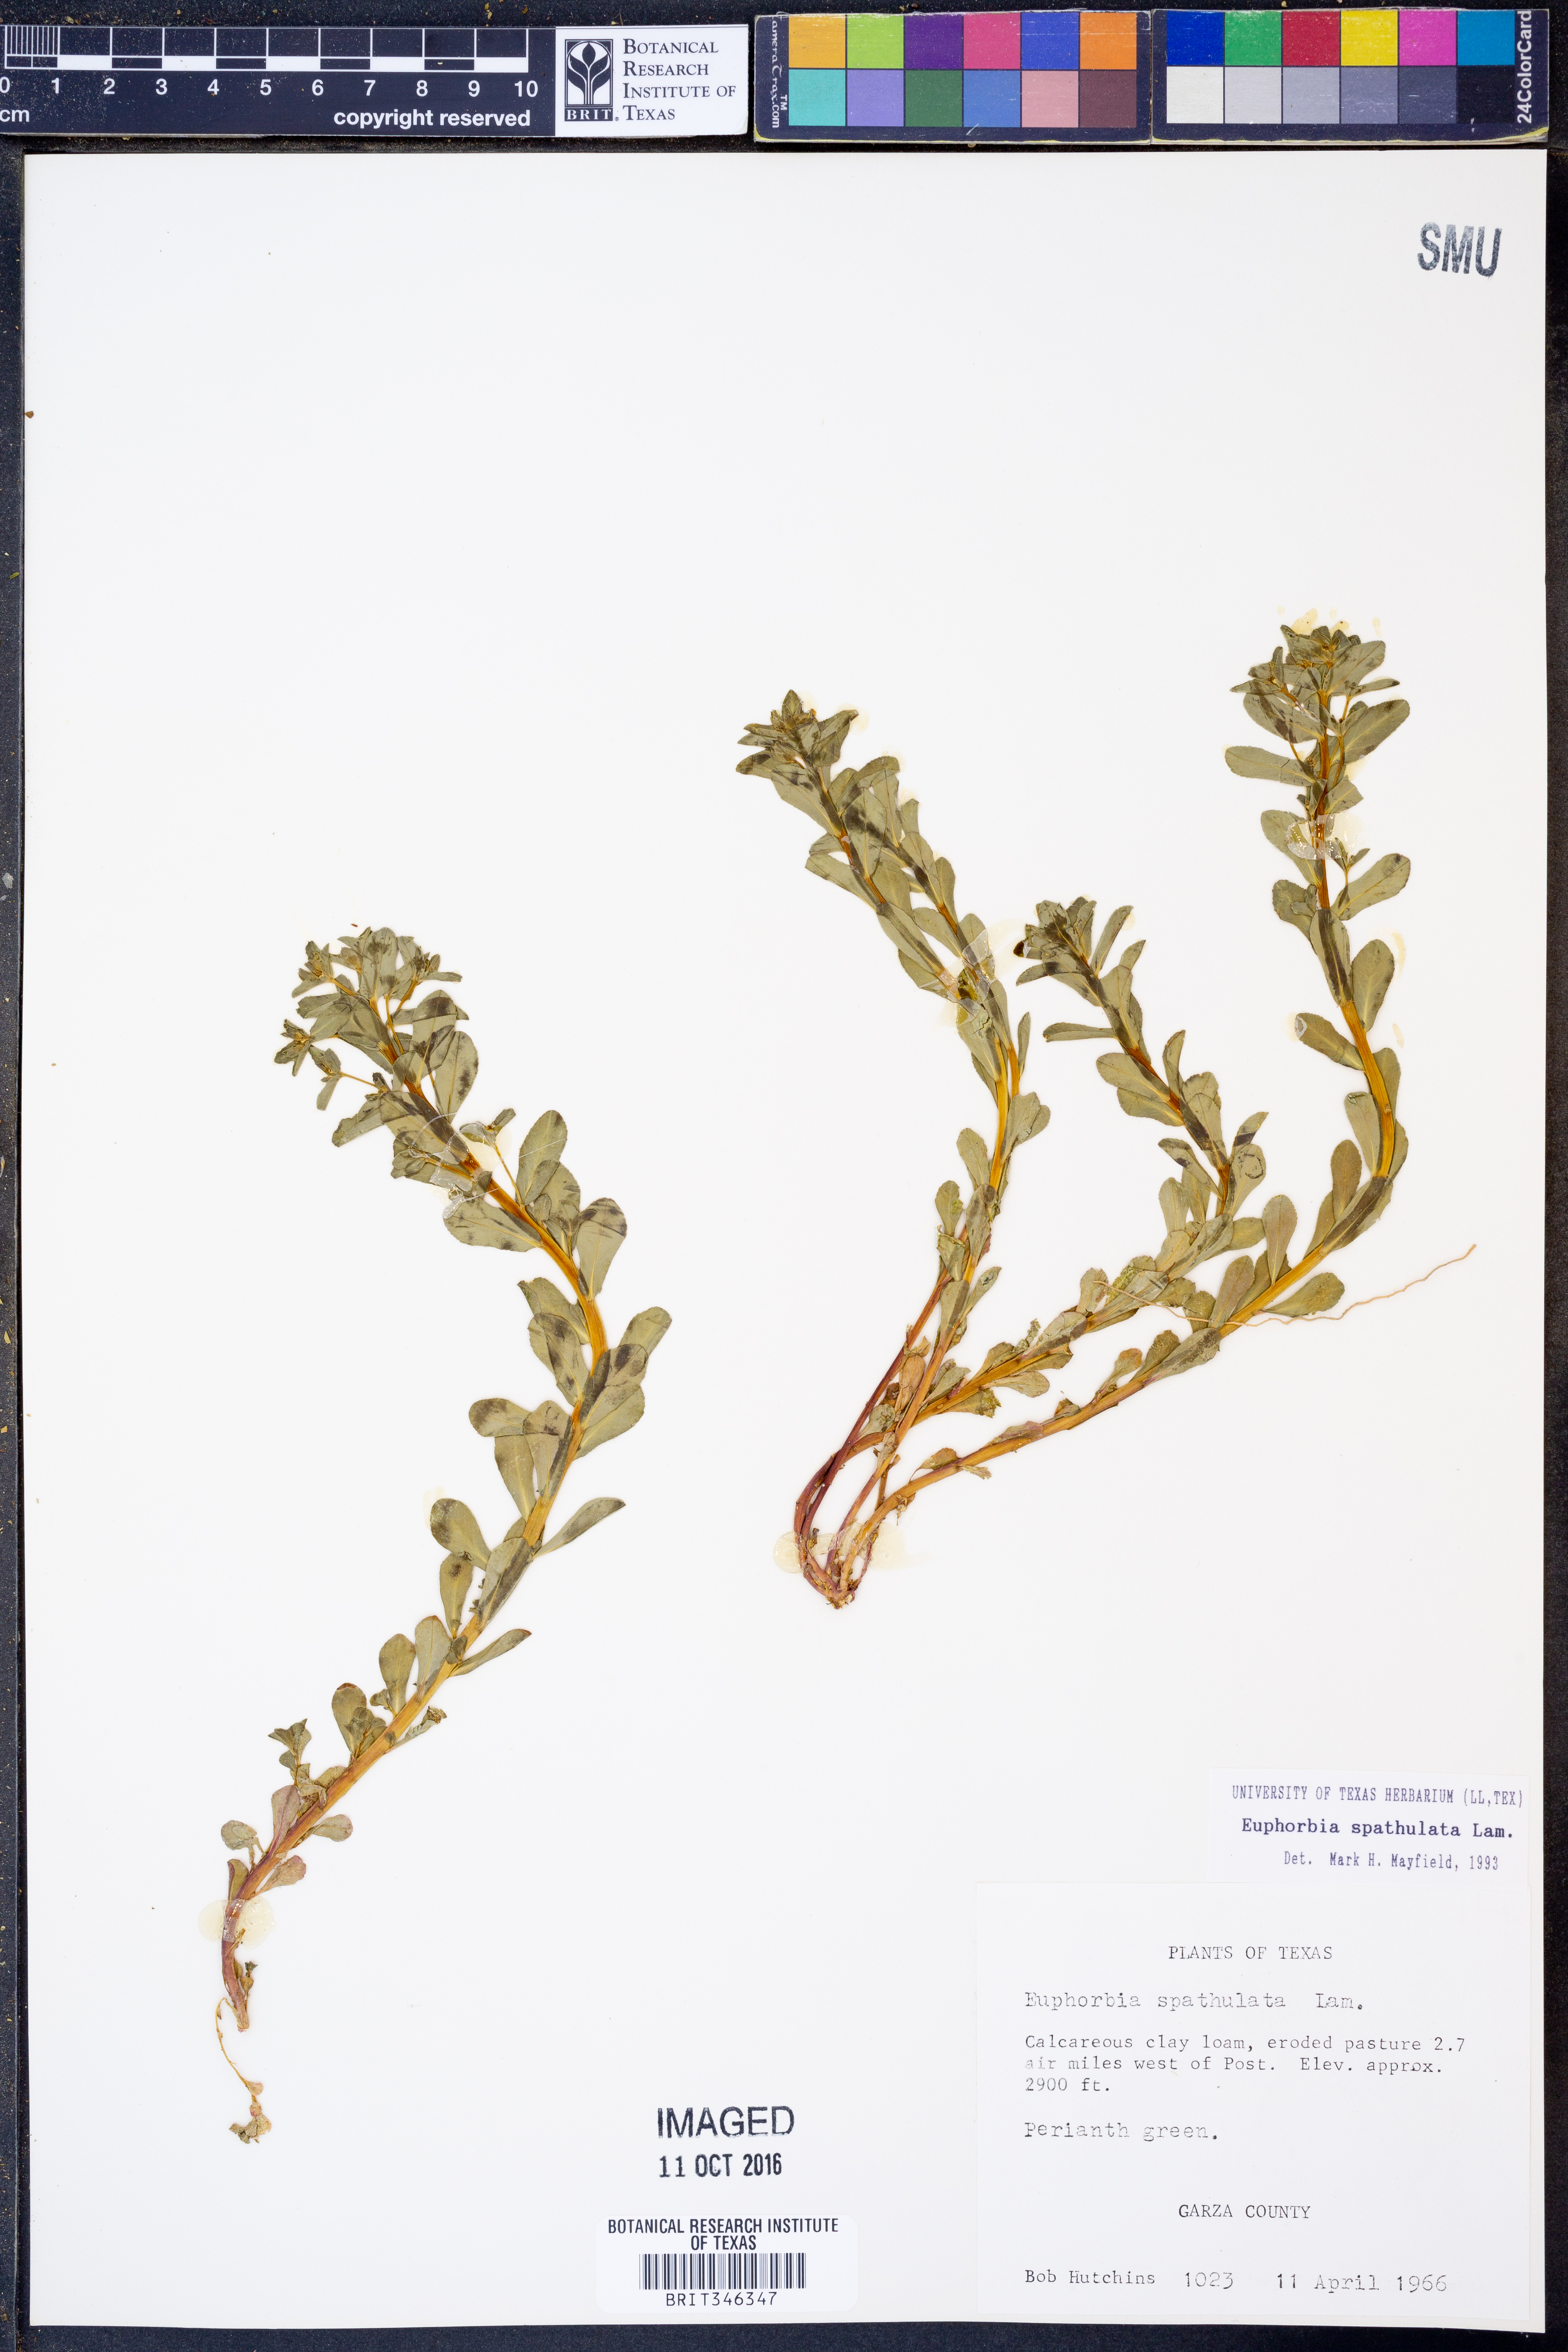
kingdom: Plantae
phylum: Tracheophyta
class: Magnoliopsida
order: Malpighiales
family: Euphorbiaceae
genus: Euphorbia
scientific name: Euphorbia spathulata
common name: Blunt spurge
